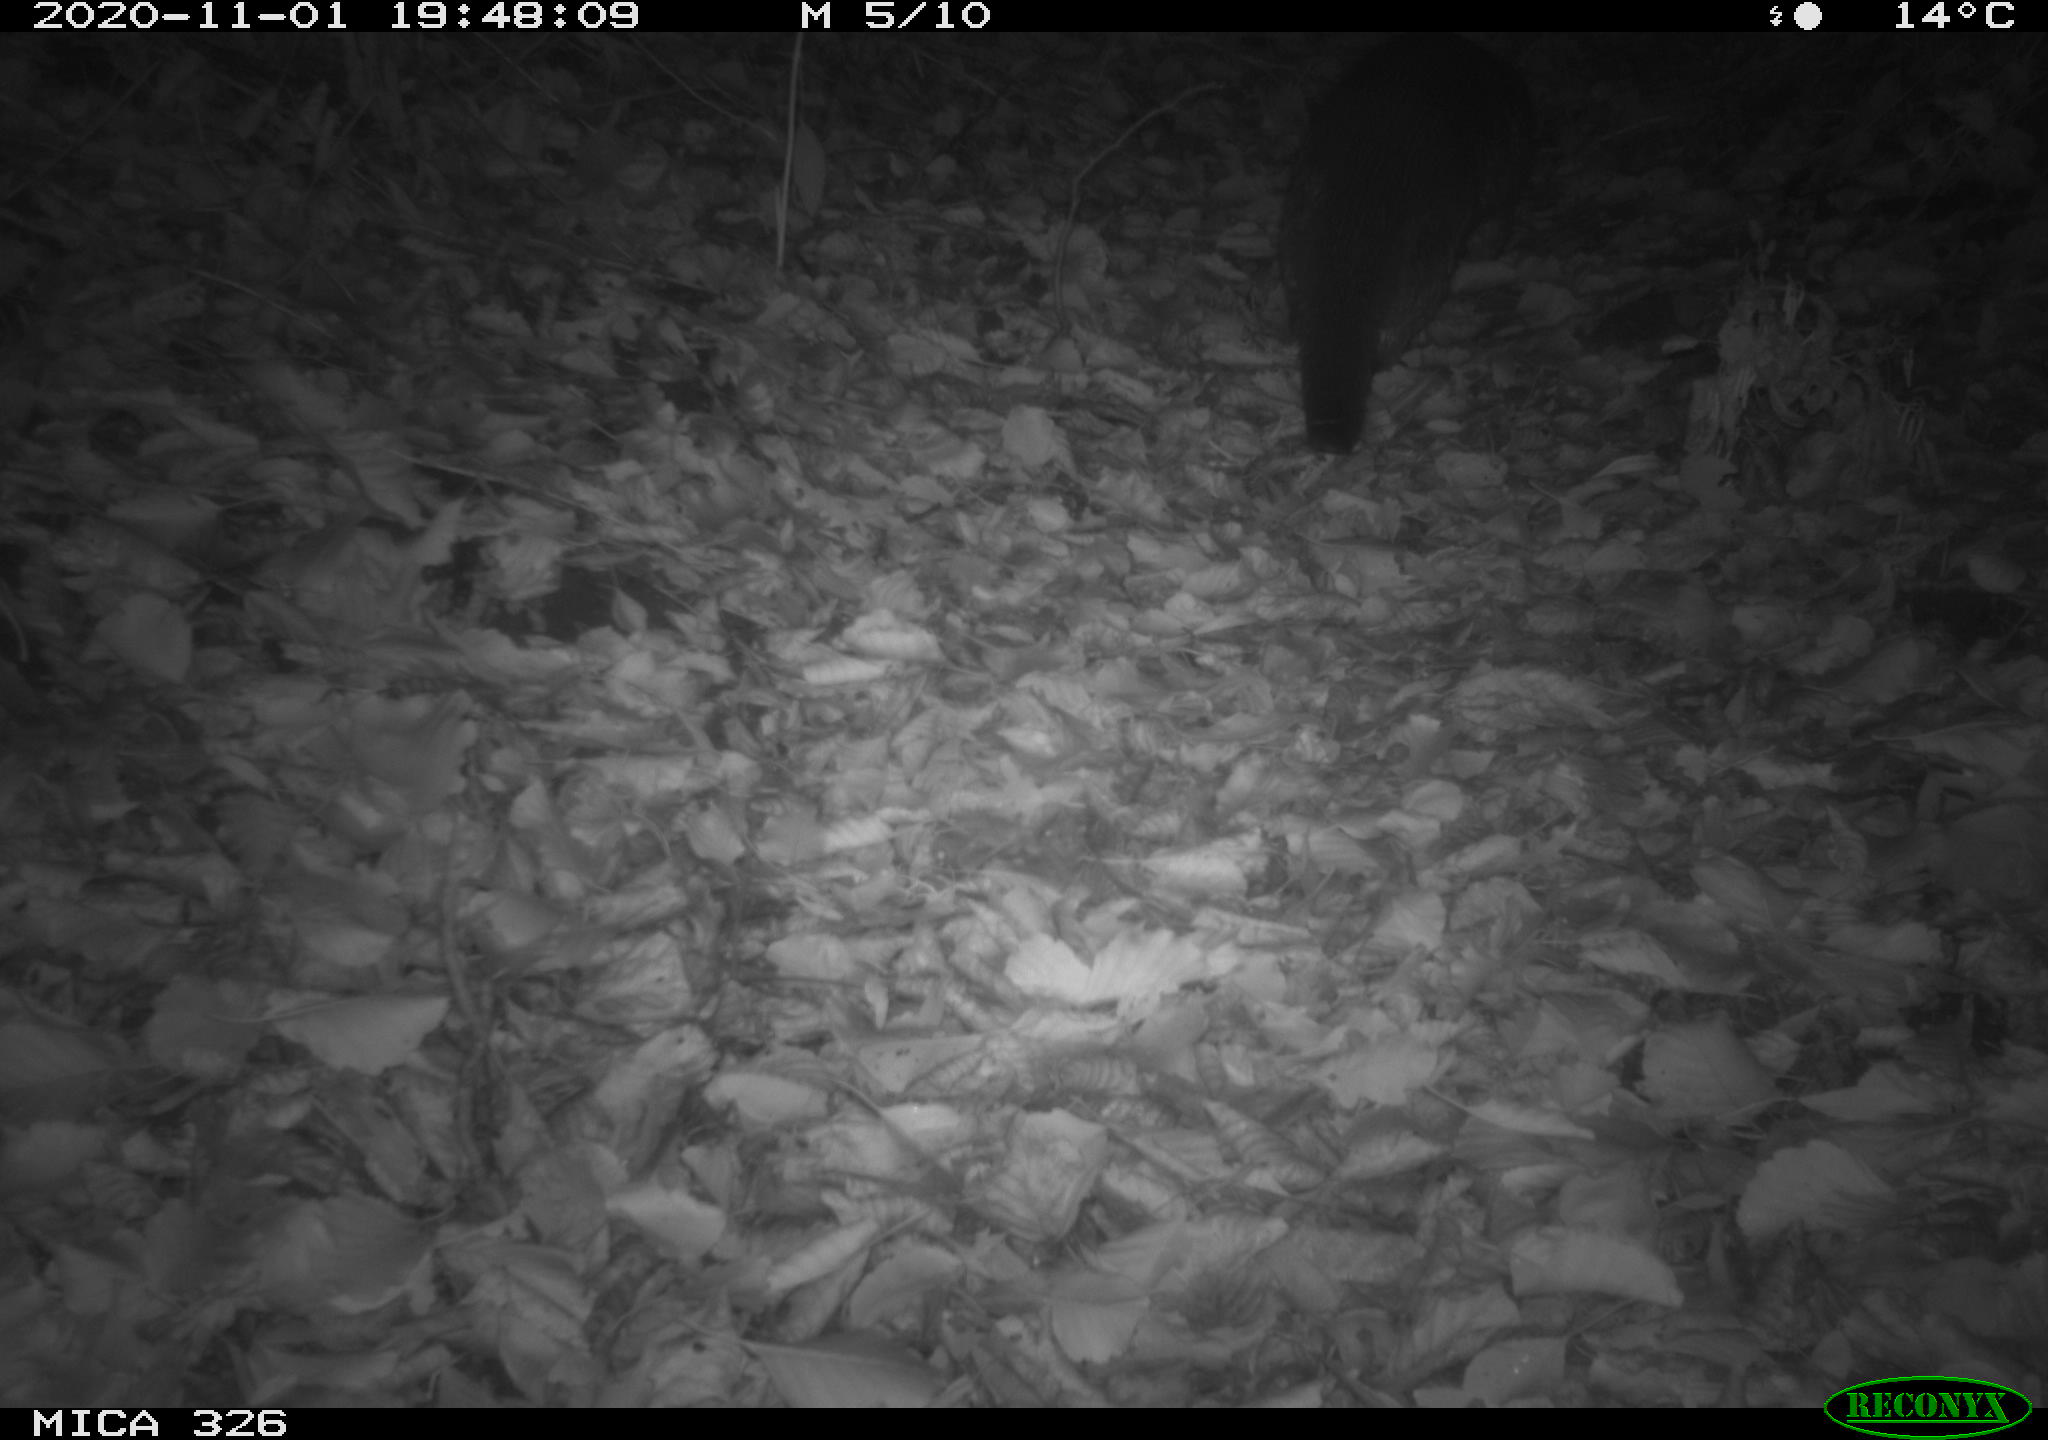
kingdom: Animalia
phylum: Chordata
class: Mammalia
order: Carnivora
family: Mustelidae
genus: Lutra
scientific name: Lutra lutra
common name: European otter
